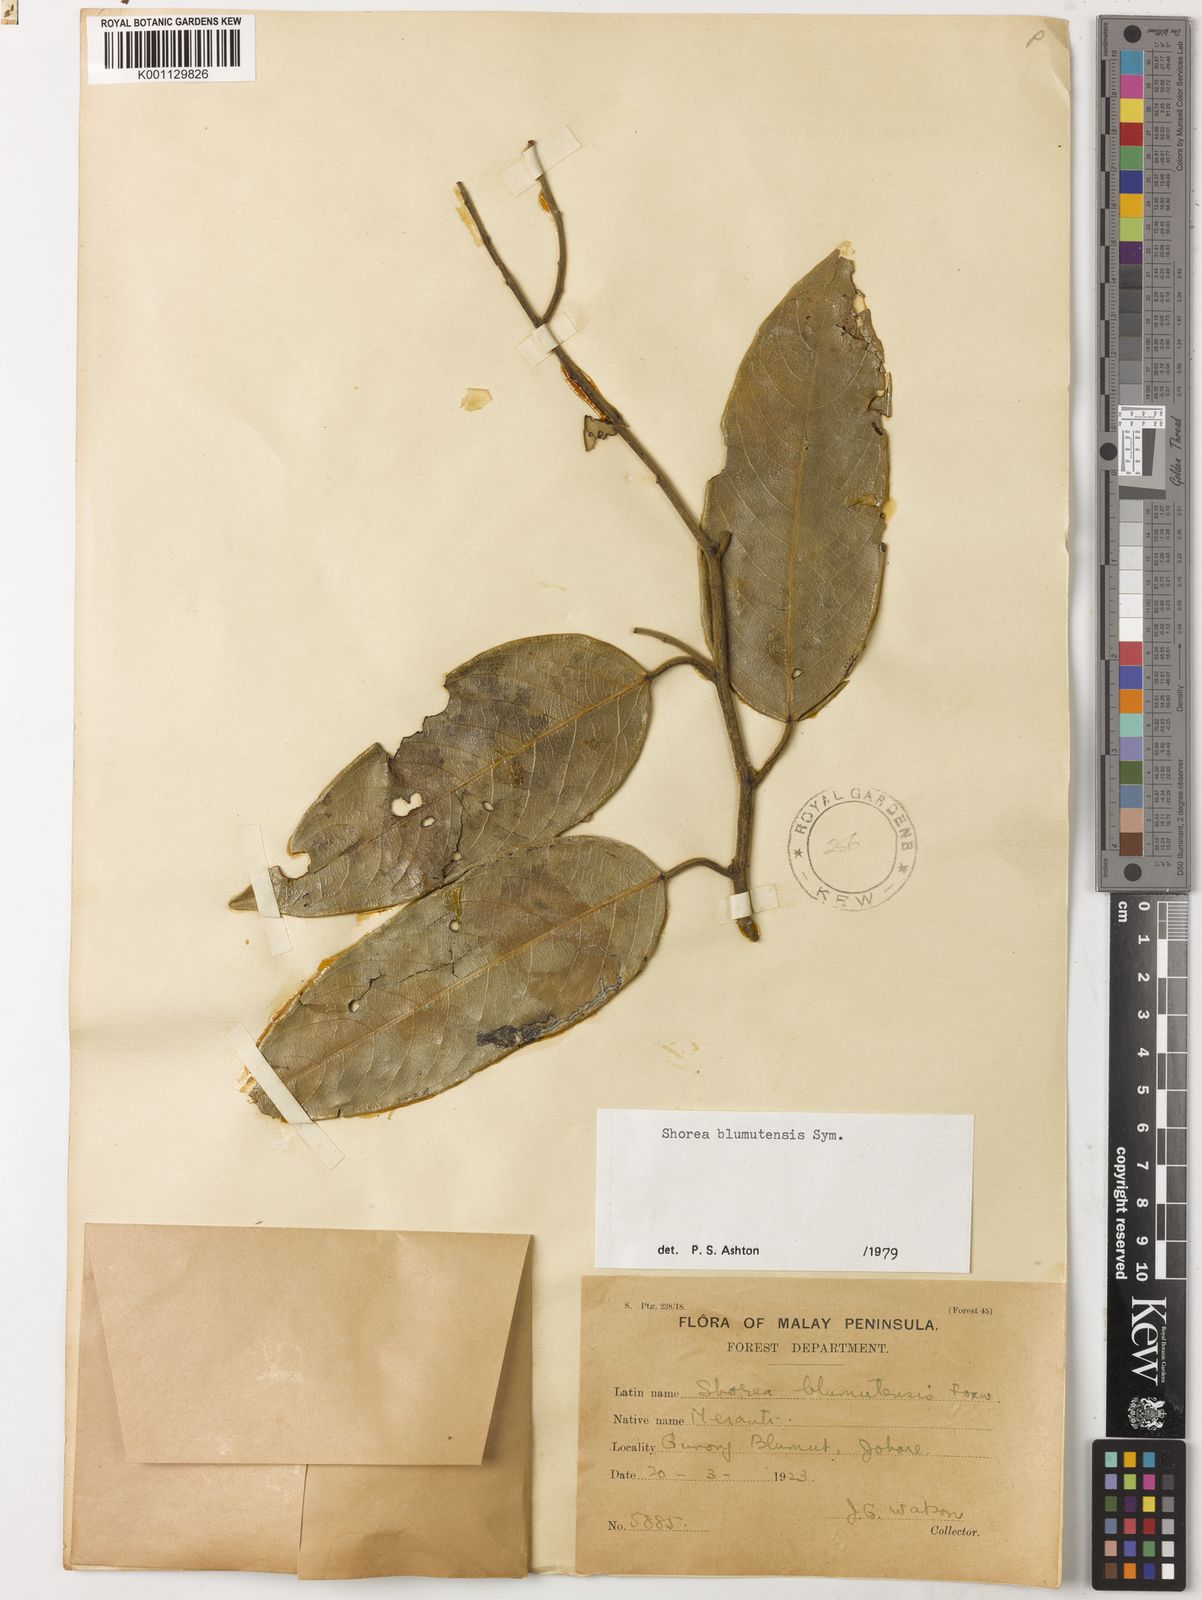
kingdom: Plantae
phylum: Tracheophyta
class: Magnoliopsida
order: Malvales
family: Dipterocarpaceae
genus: Shorea
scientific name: Shorea blumutensis
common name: Yellow meranti
